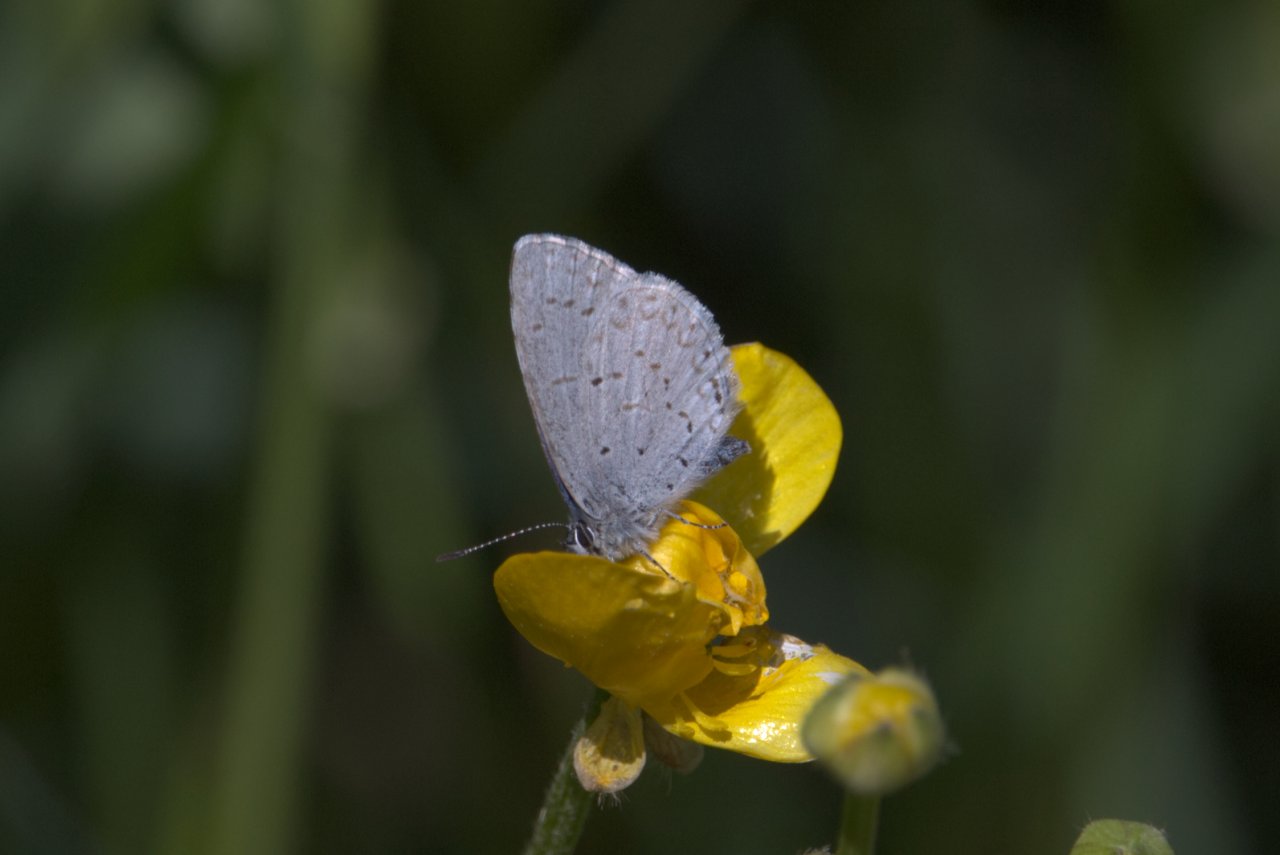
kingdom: Animalia
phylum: Arthropoda
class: Insecta
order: Lepidoptera
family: Lycaenidae
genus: Celastrina
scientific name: Celastrina ladon
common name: Echo Azure
